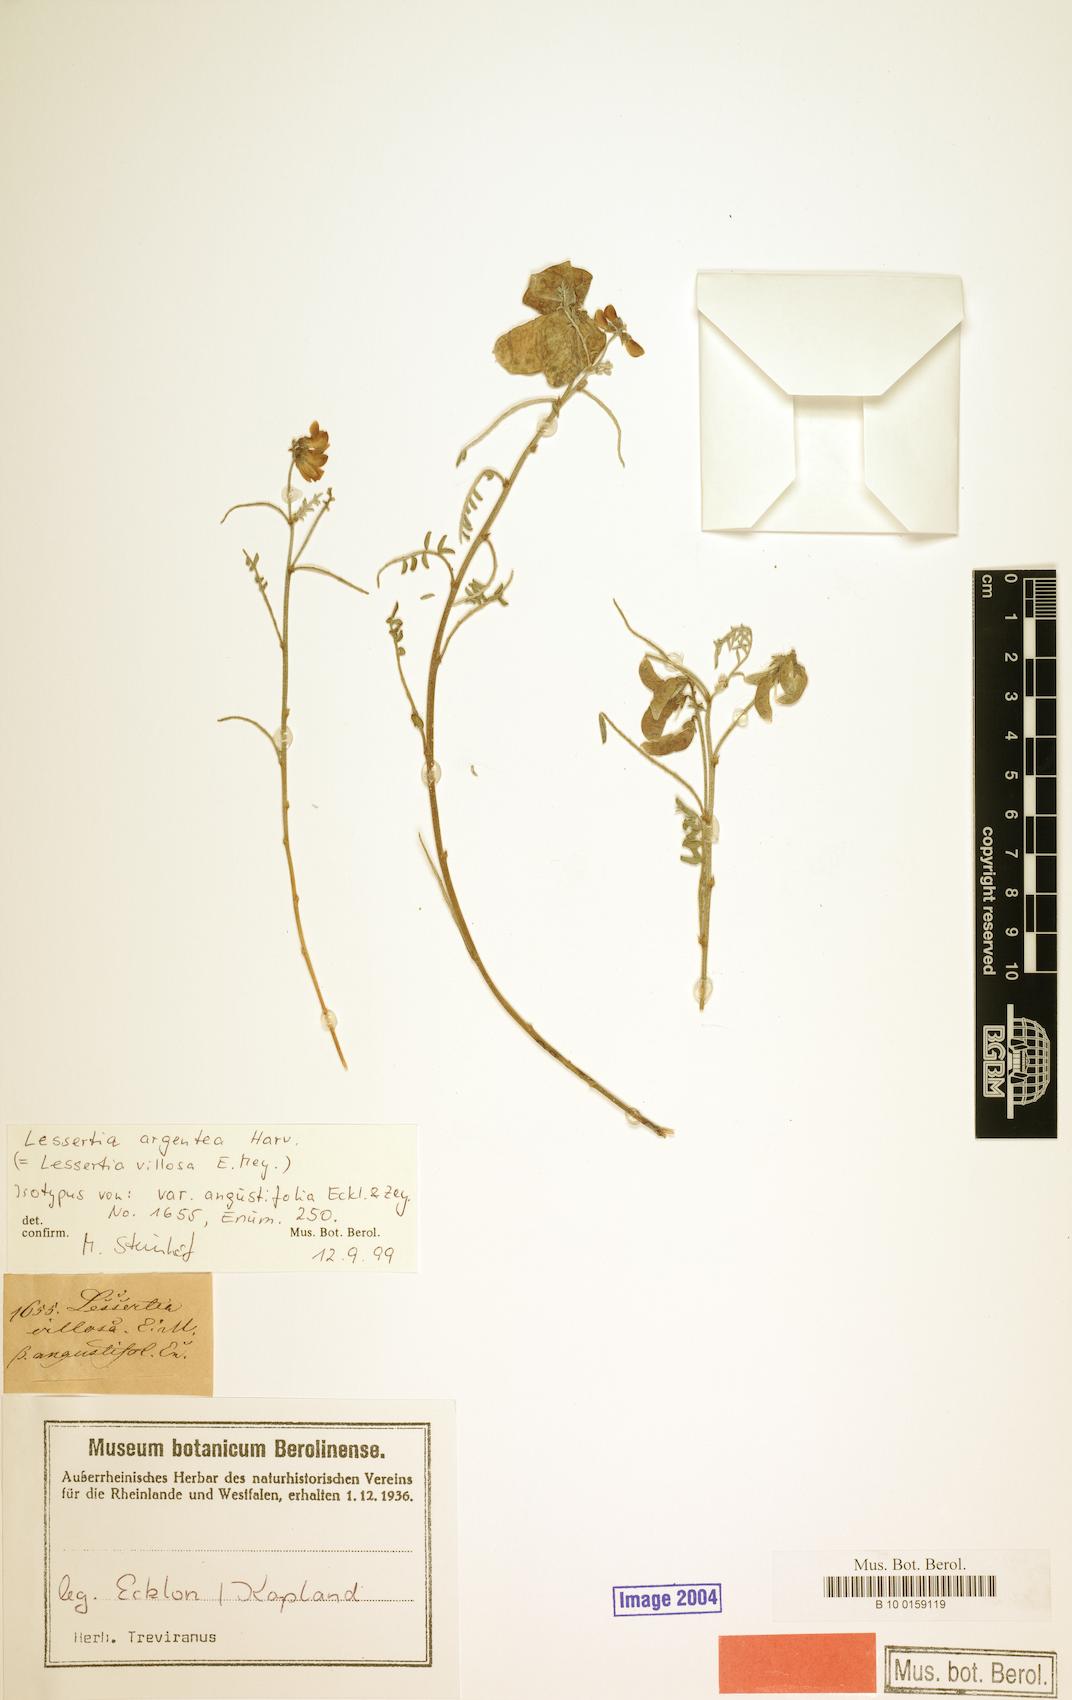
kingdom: Plantae
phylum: Tracheophyta
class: Magnoliopsida
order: Fabales
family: Fabaceae
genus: Lessertia
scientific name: Lessertia villosa
